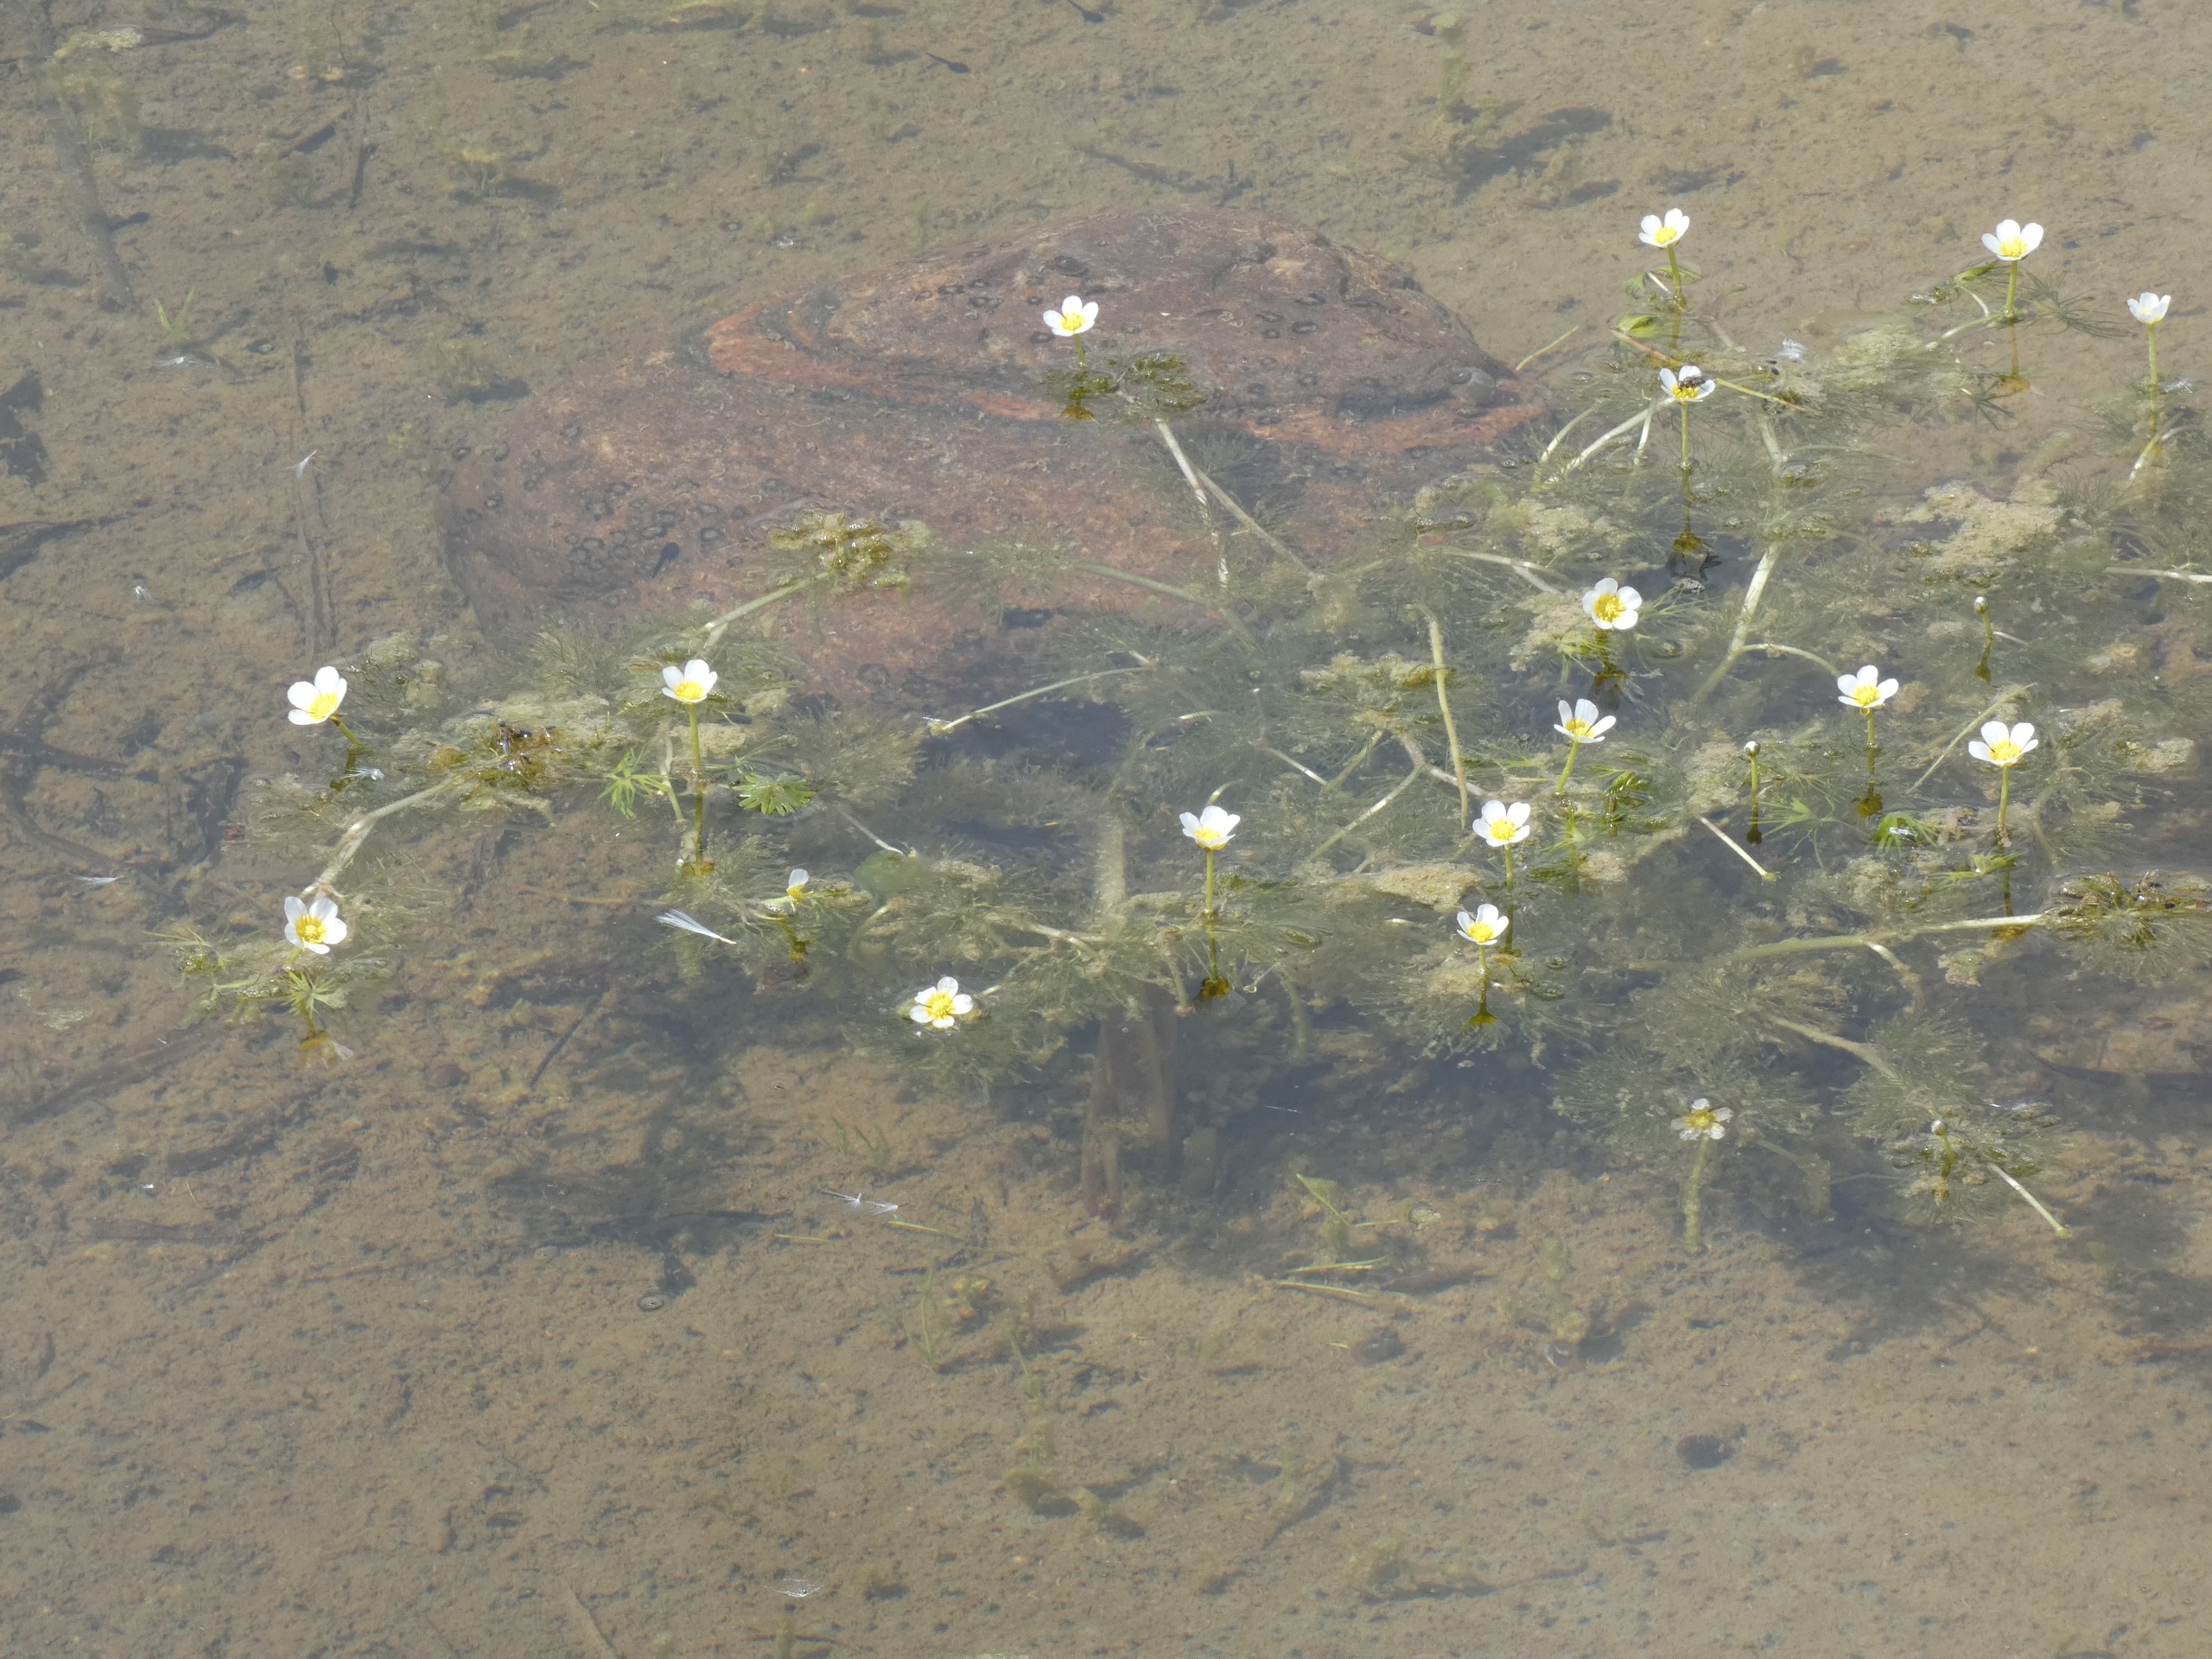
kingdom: Plantae
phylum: Tracheophyta
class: Magnoliopsida
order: Ranunculales
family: Ranunculaceae
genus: Ranunculus
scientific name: Ranunculus trichophyllus
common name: Hårfliget vandranunkel
